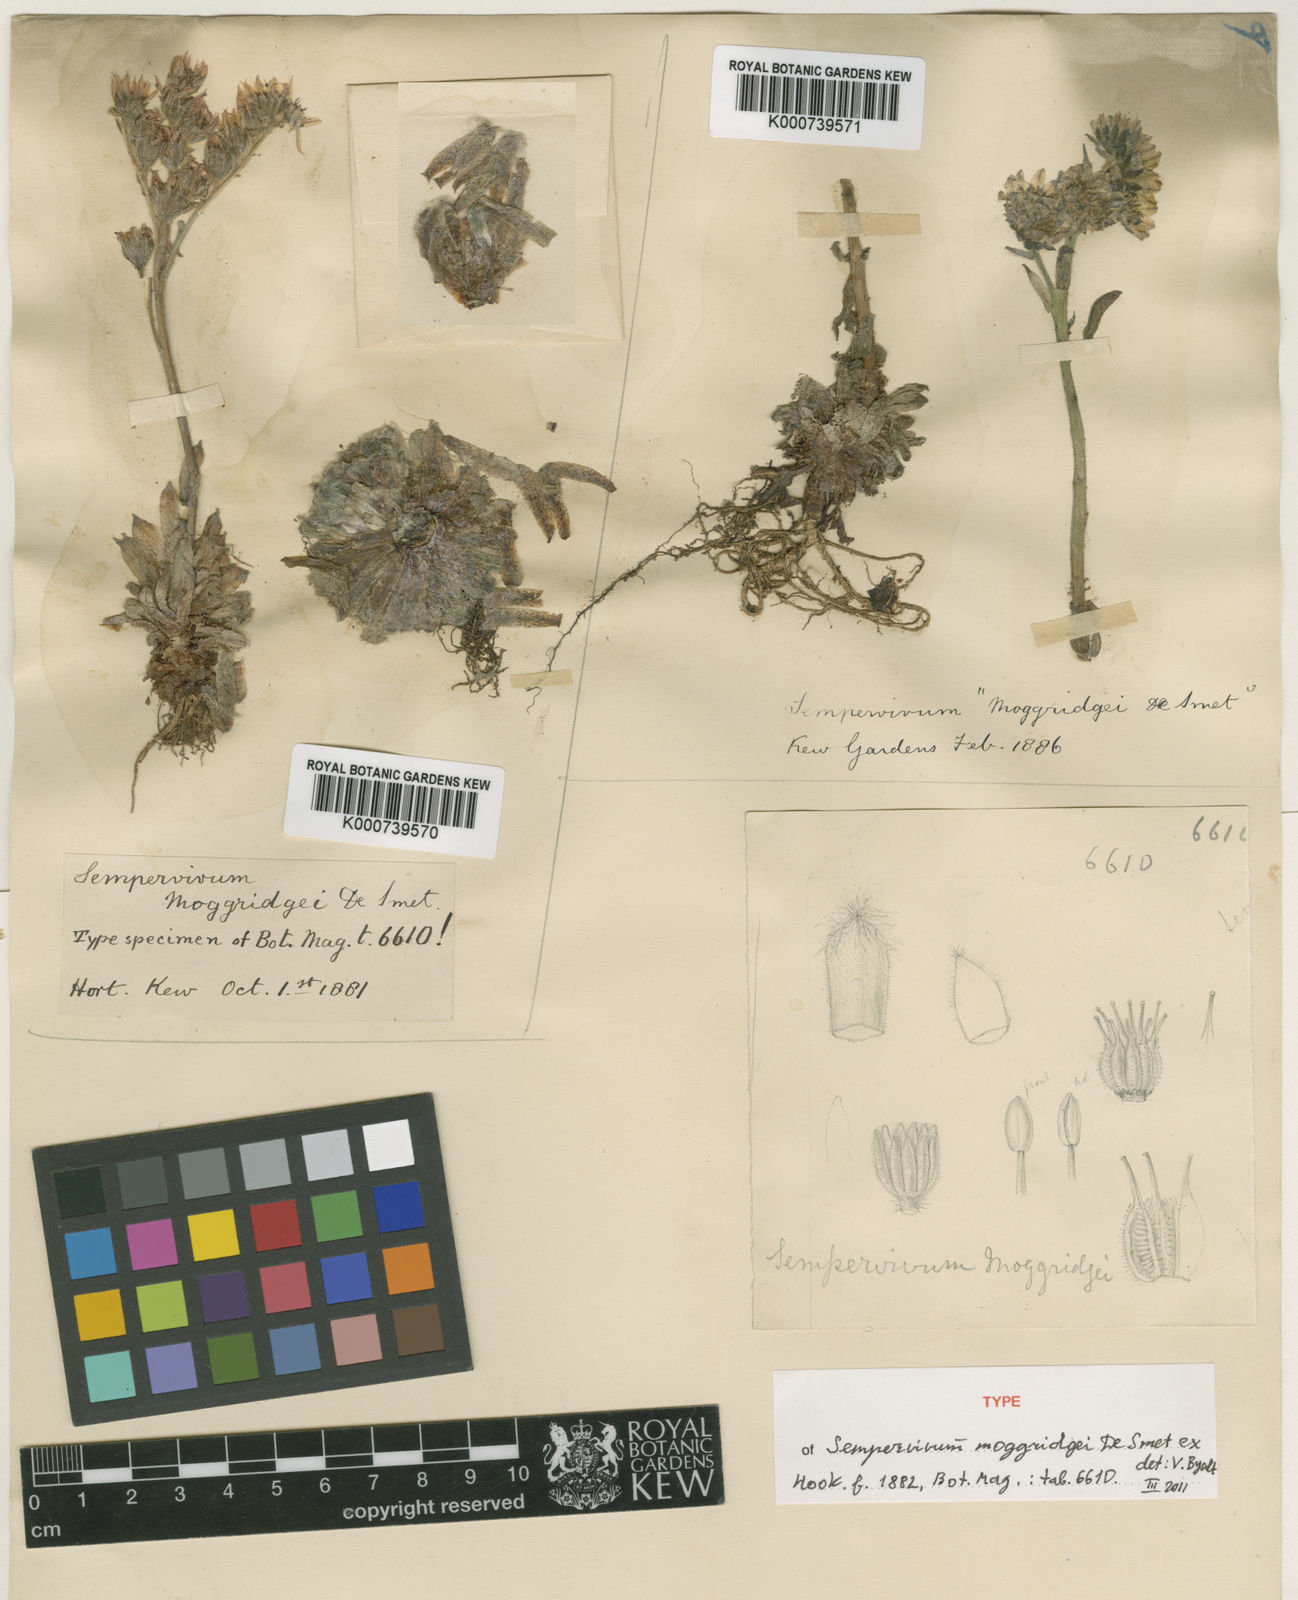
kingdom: Plantae
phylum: Tracheophyta
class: Magnoliopsida
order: Saxifragales
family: Crassulaceae
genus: Sempervivum
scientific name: Sempervivum arachnoideum
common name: Cobweb house-leek
